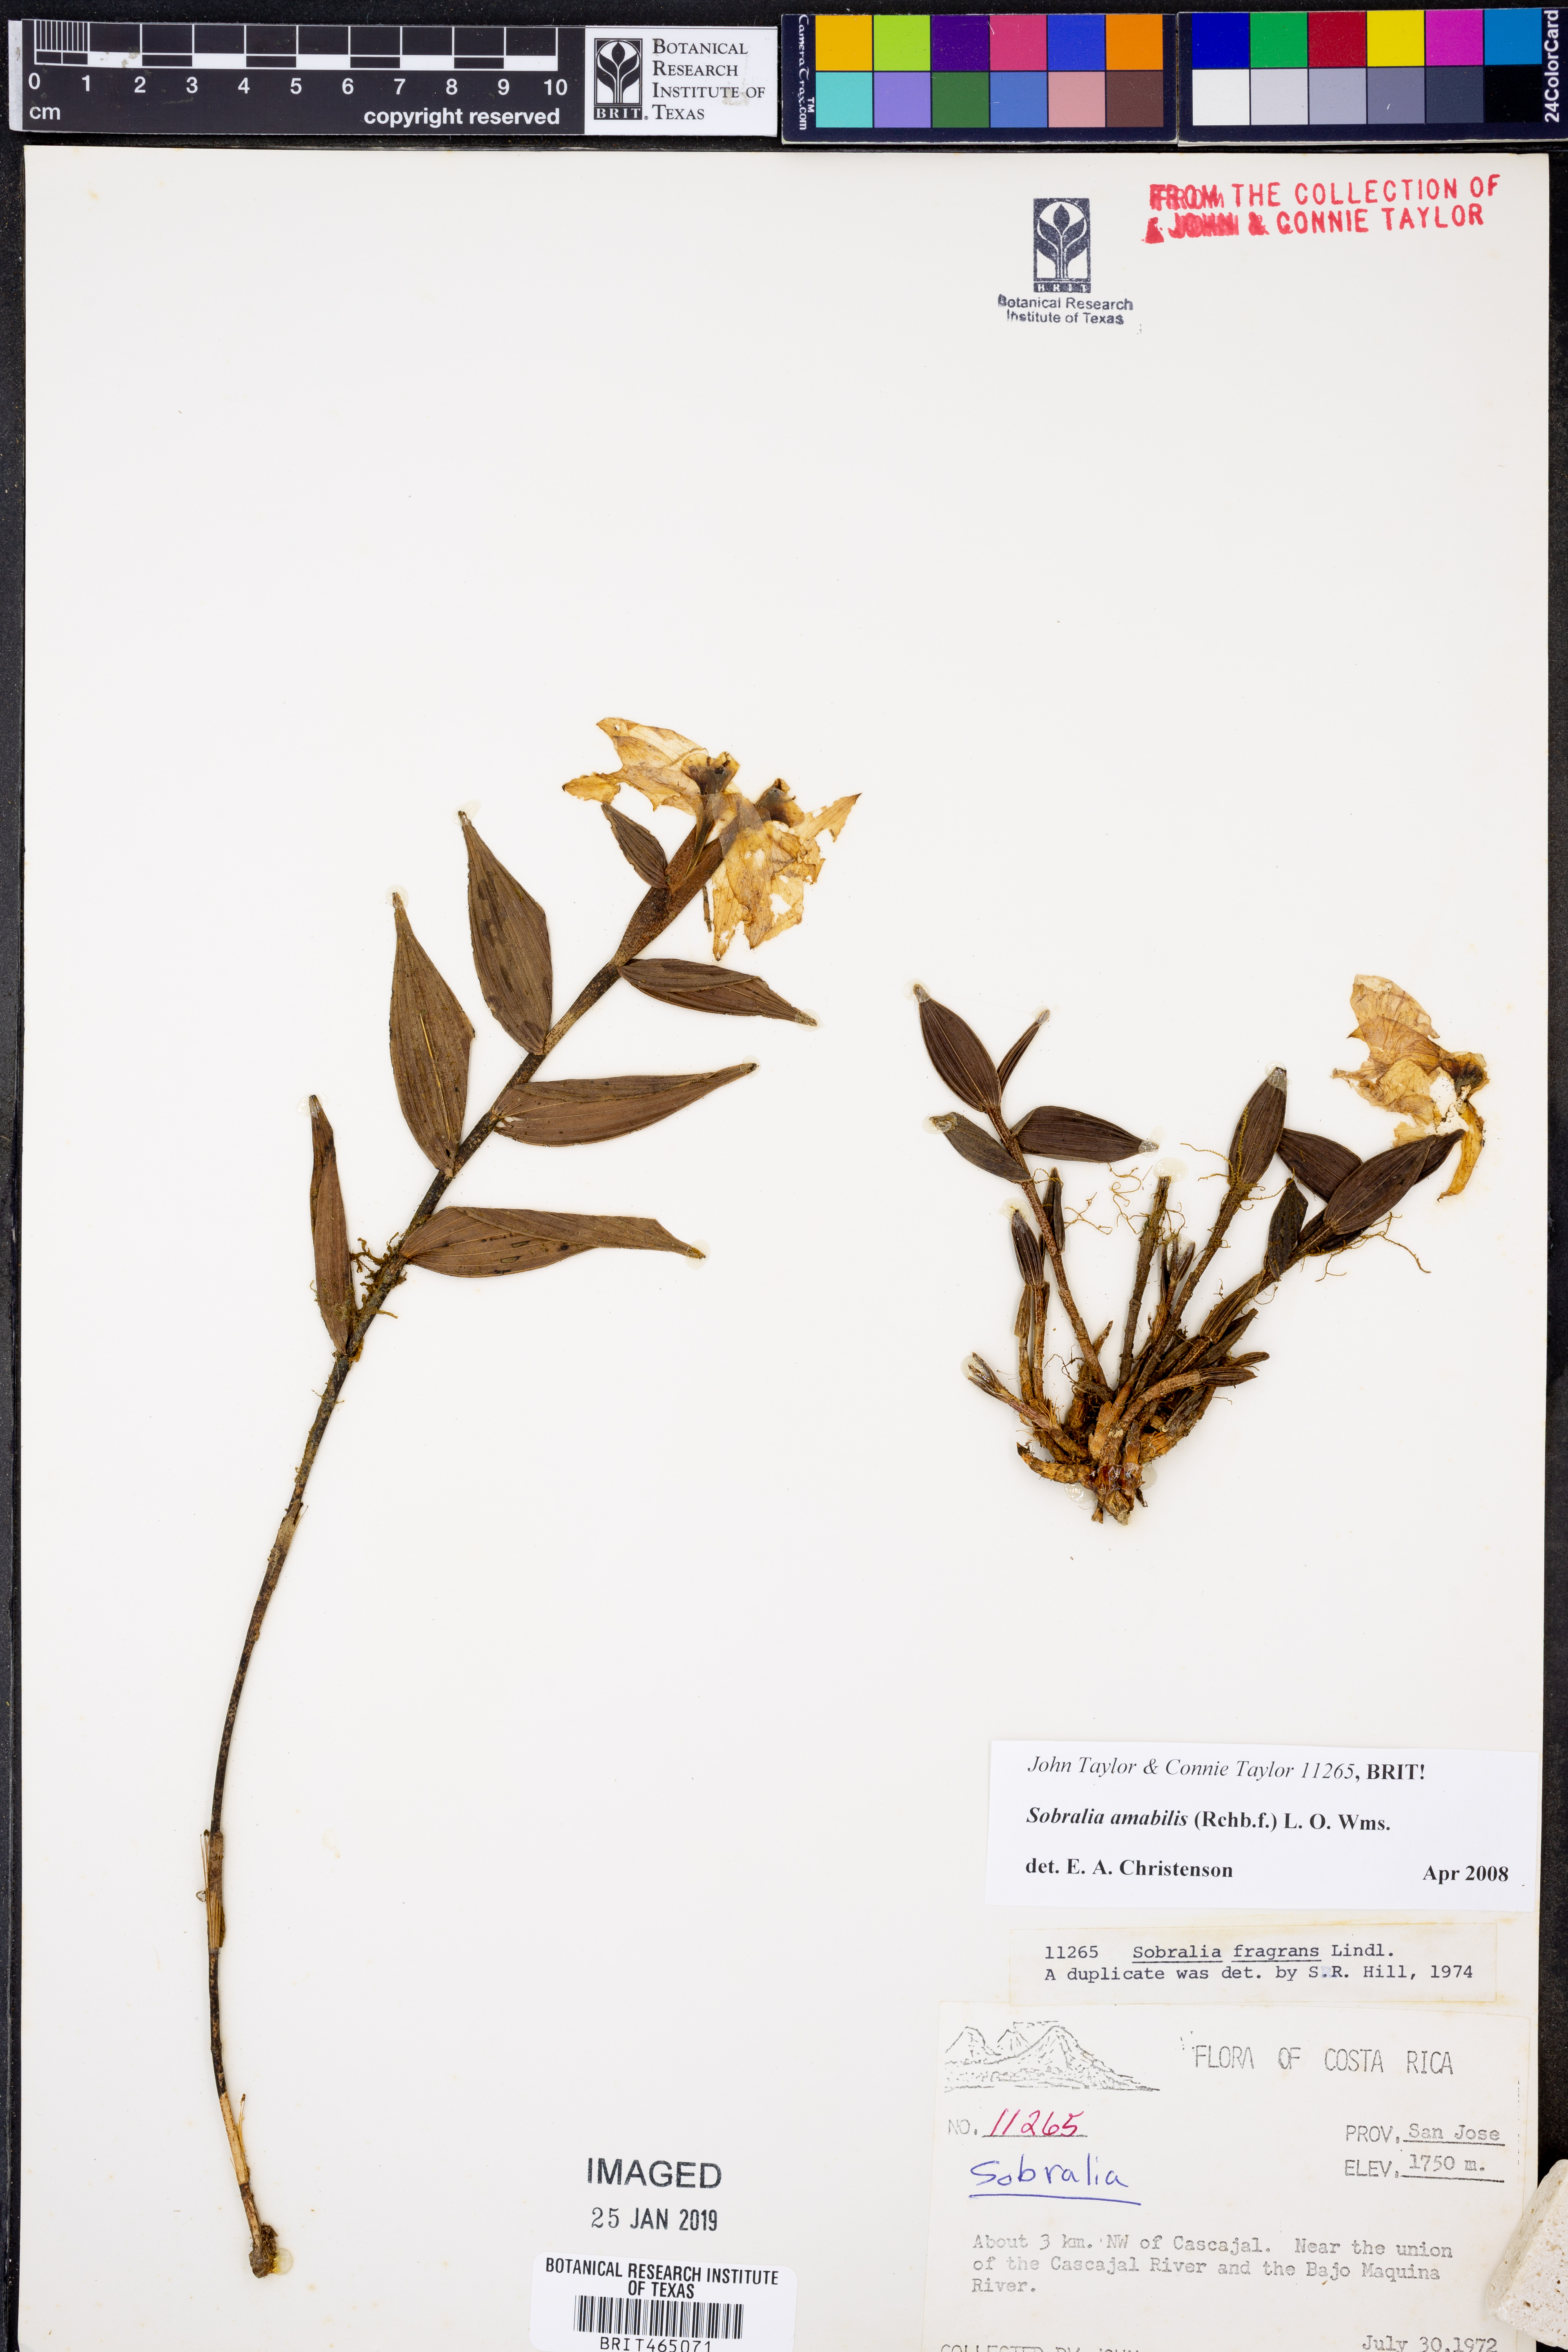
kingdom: Plantae
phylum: Tracheophyta
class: Liliopsida
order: Asparagales
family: Orchidaceae
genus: Sobralia
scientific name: Sobralia amabilis
